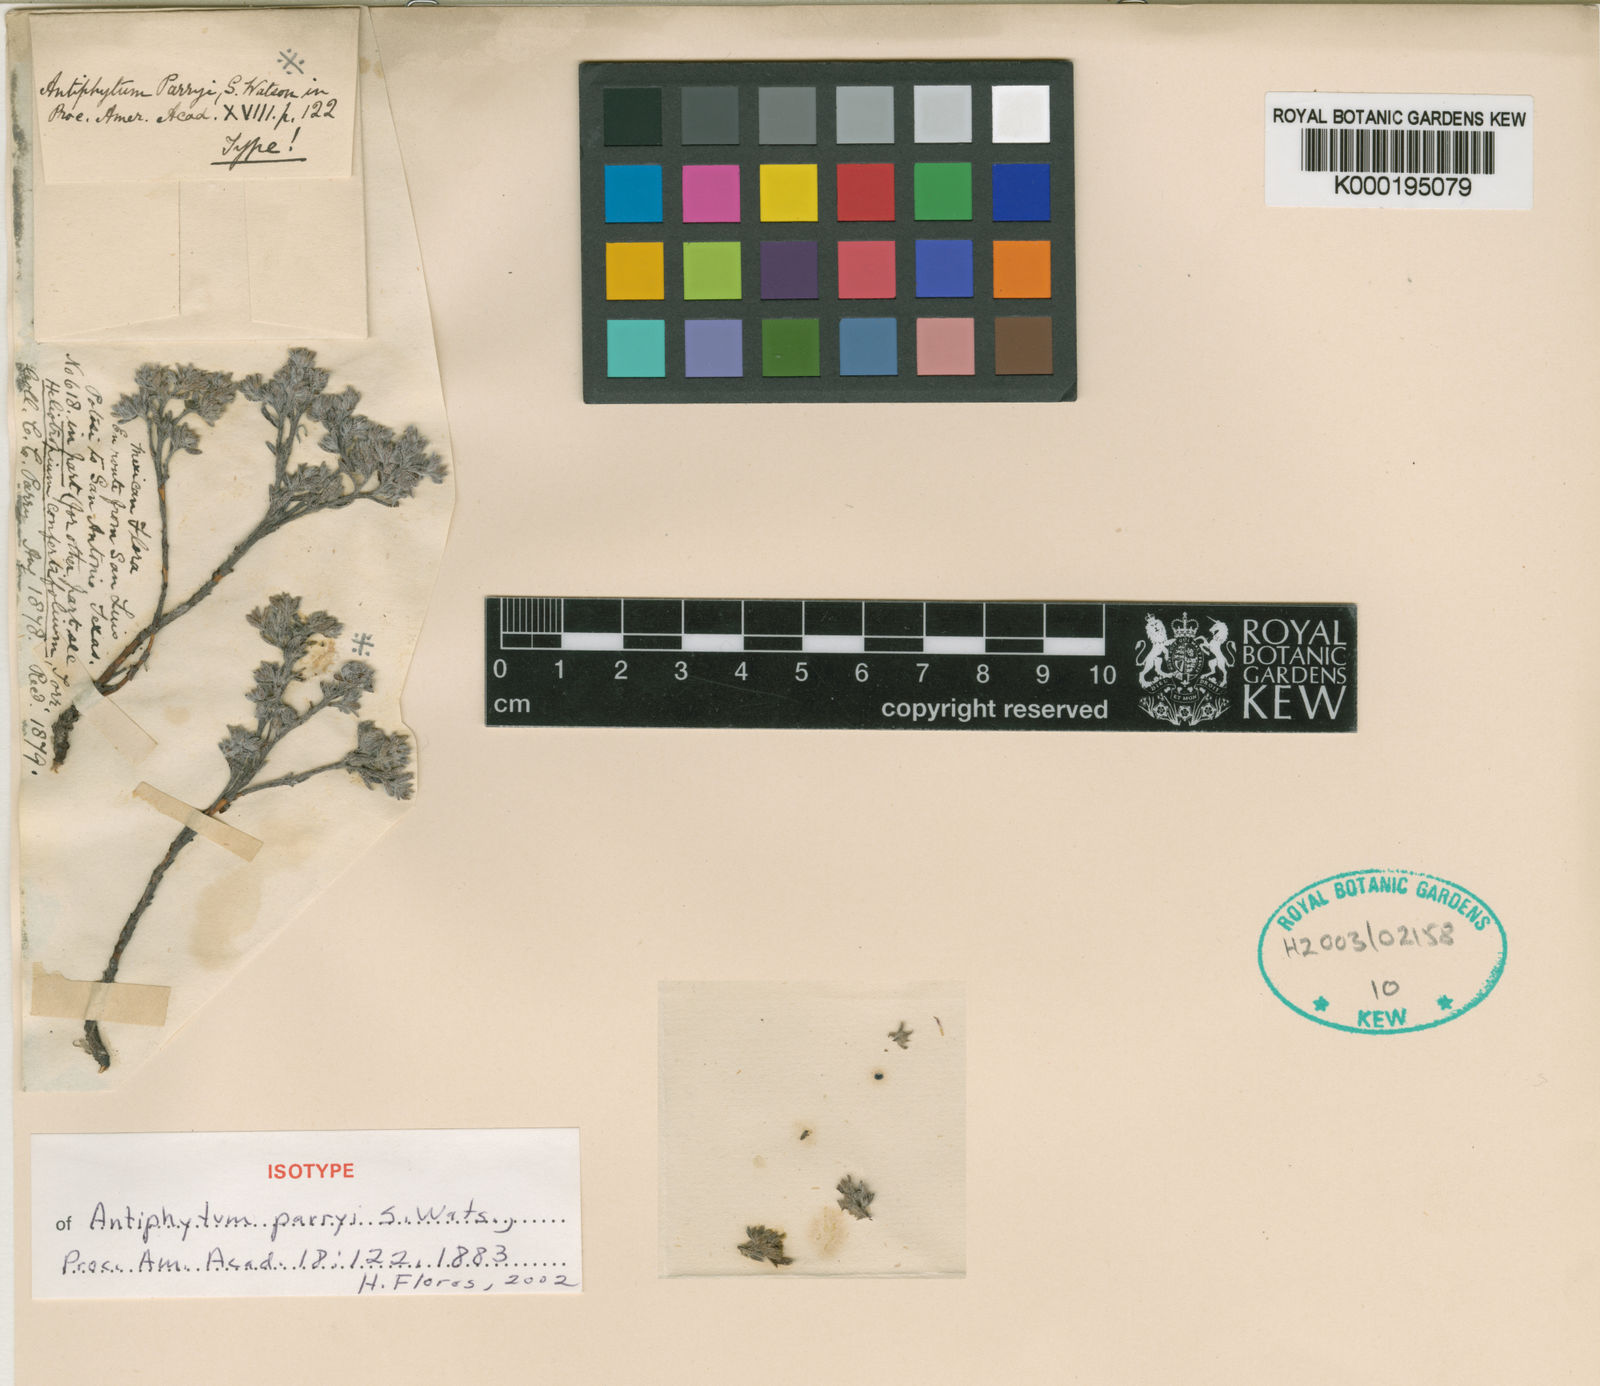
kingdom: Plantae
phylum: Tracheophyta
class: Magnoliopsida
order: Boraginales
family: Boraginaceae
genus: Antiphytum
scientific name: Antiphytum parryi
